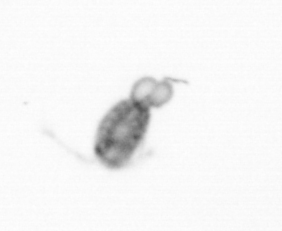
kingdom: Animalia
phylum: Arthropoda
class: Copepoda
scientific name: Copepoda
